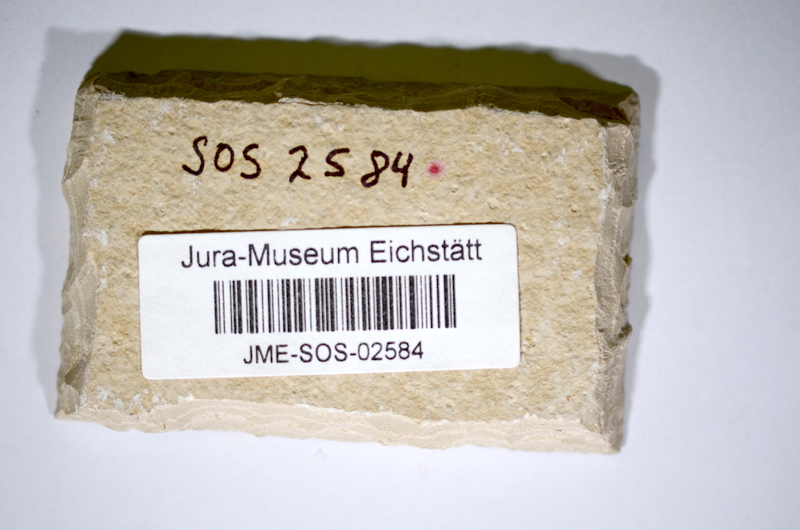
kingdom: Animalia
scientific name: Animalia
